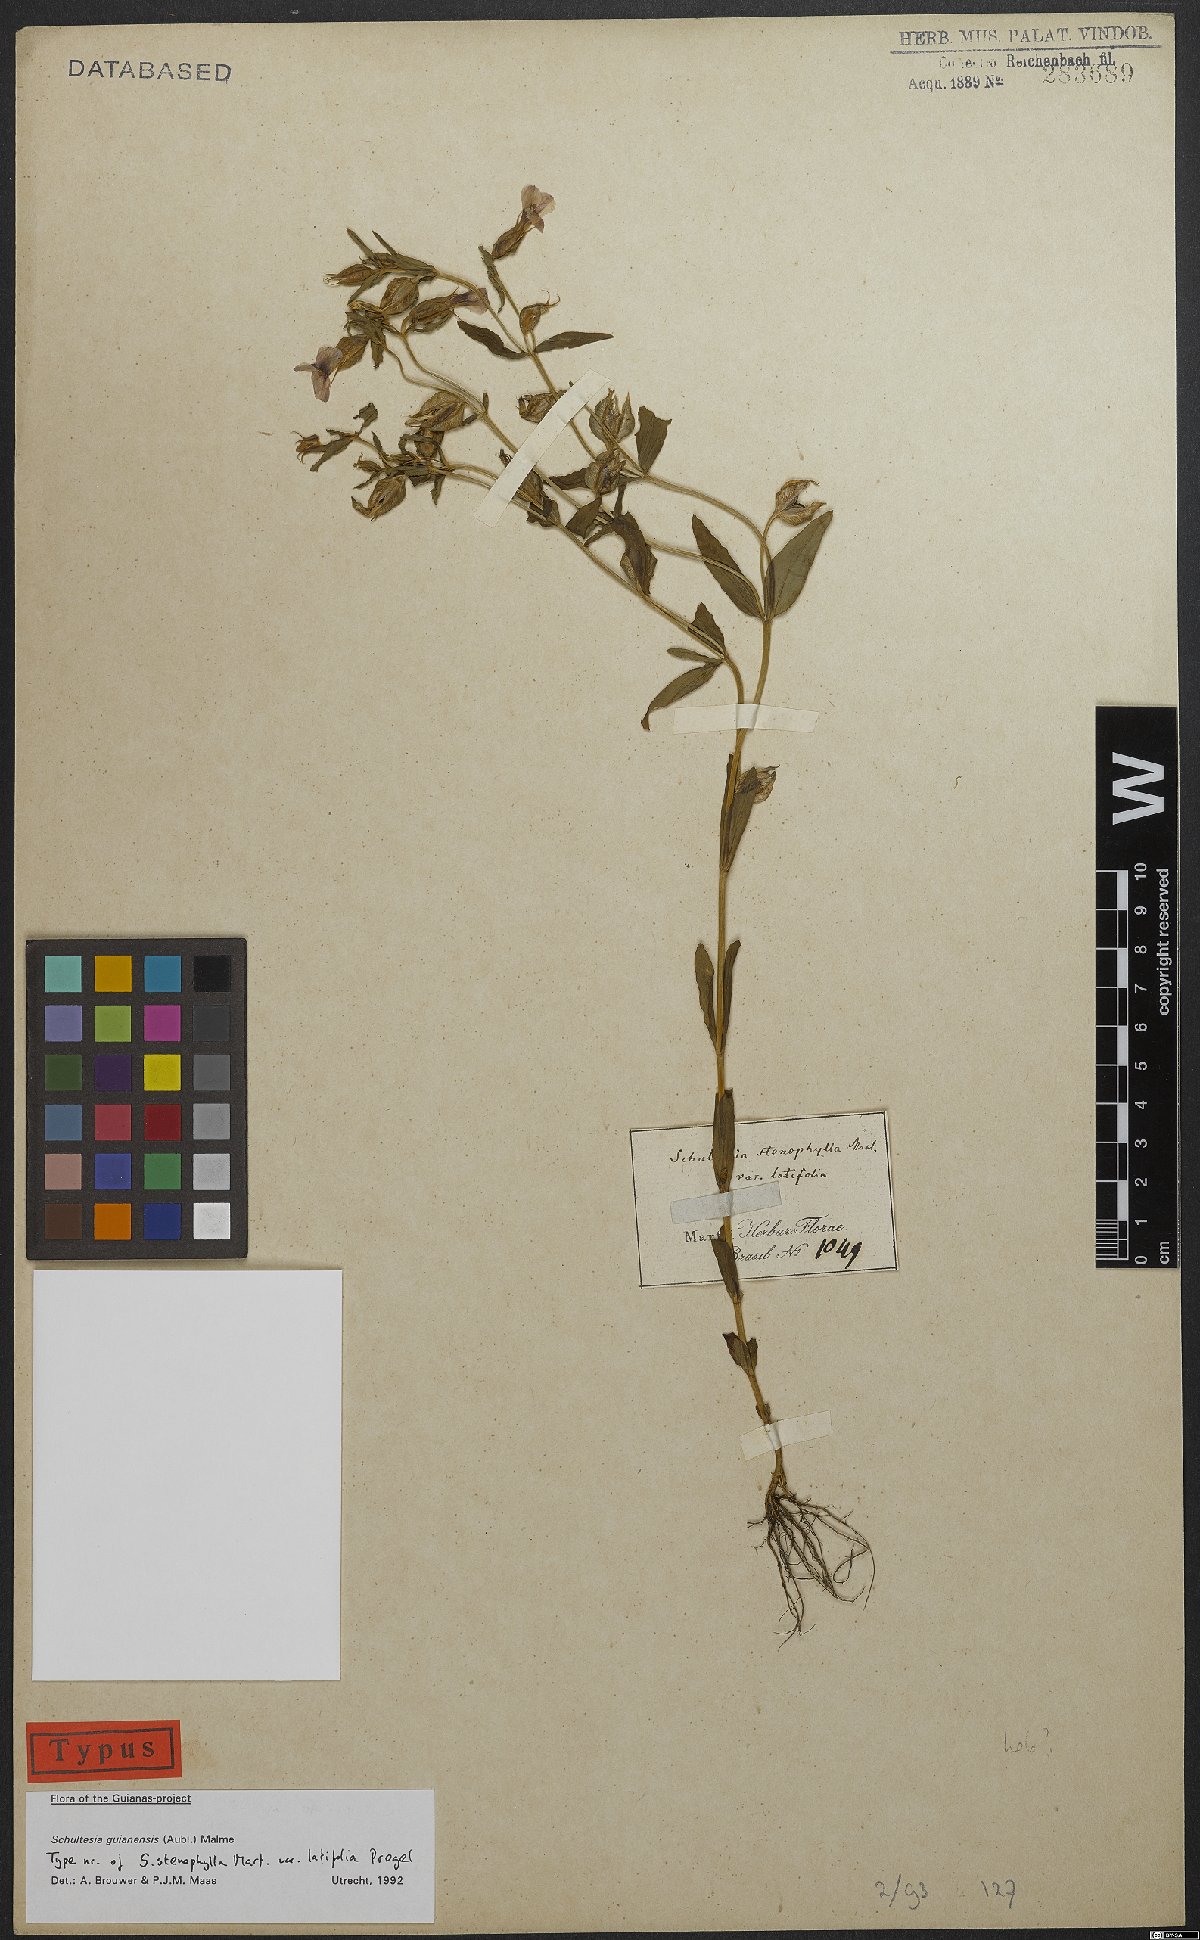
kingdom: Plantae
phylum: Tracheophyta
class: Magnoliopsida
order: Gentianales
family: Gentianaceae
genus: Schultesia
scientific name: Schultesia guianensis
